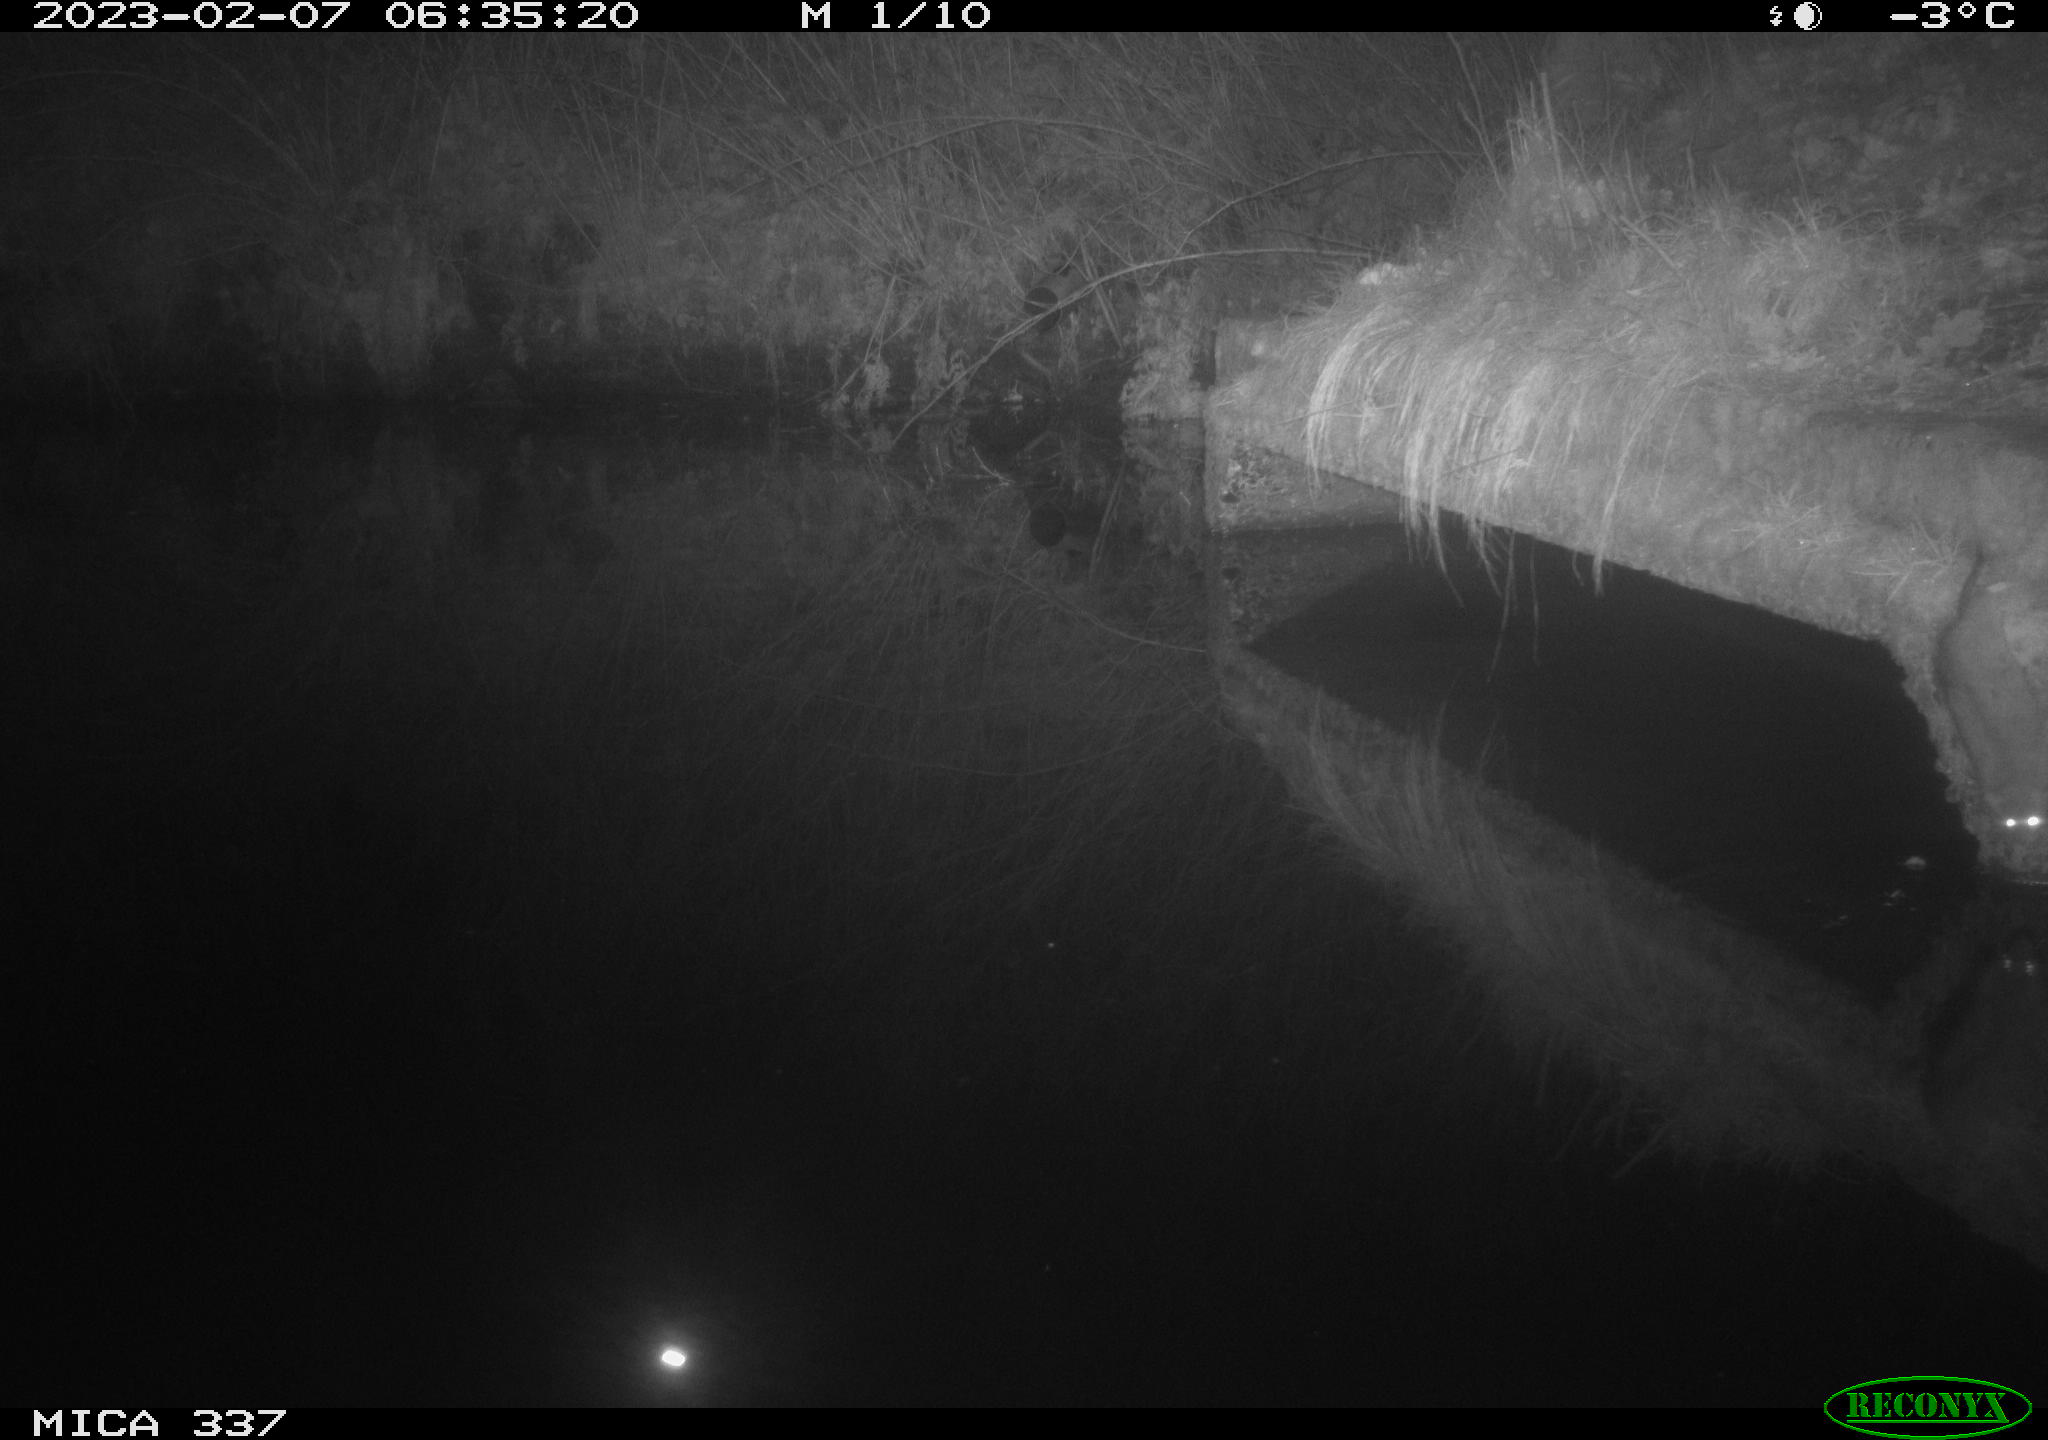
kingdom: Animalia
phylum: Chordata
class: Mammalia
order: Rodentia
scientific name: Rodentia
